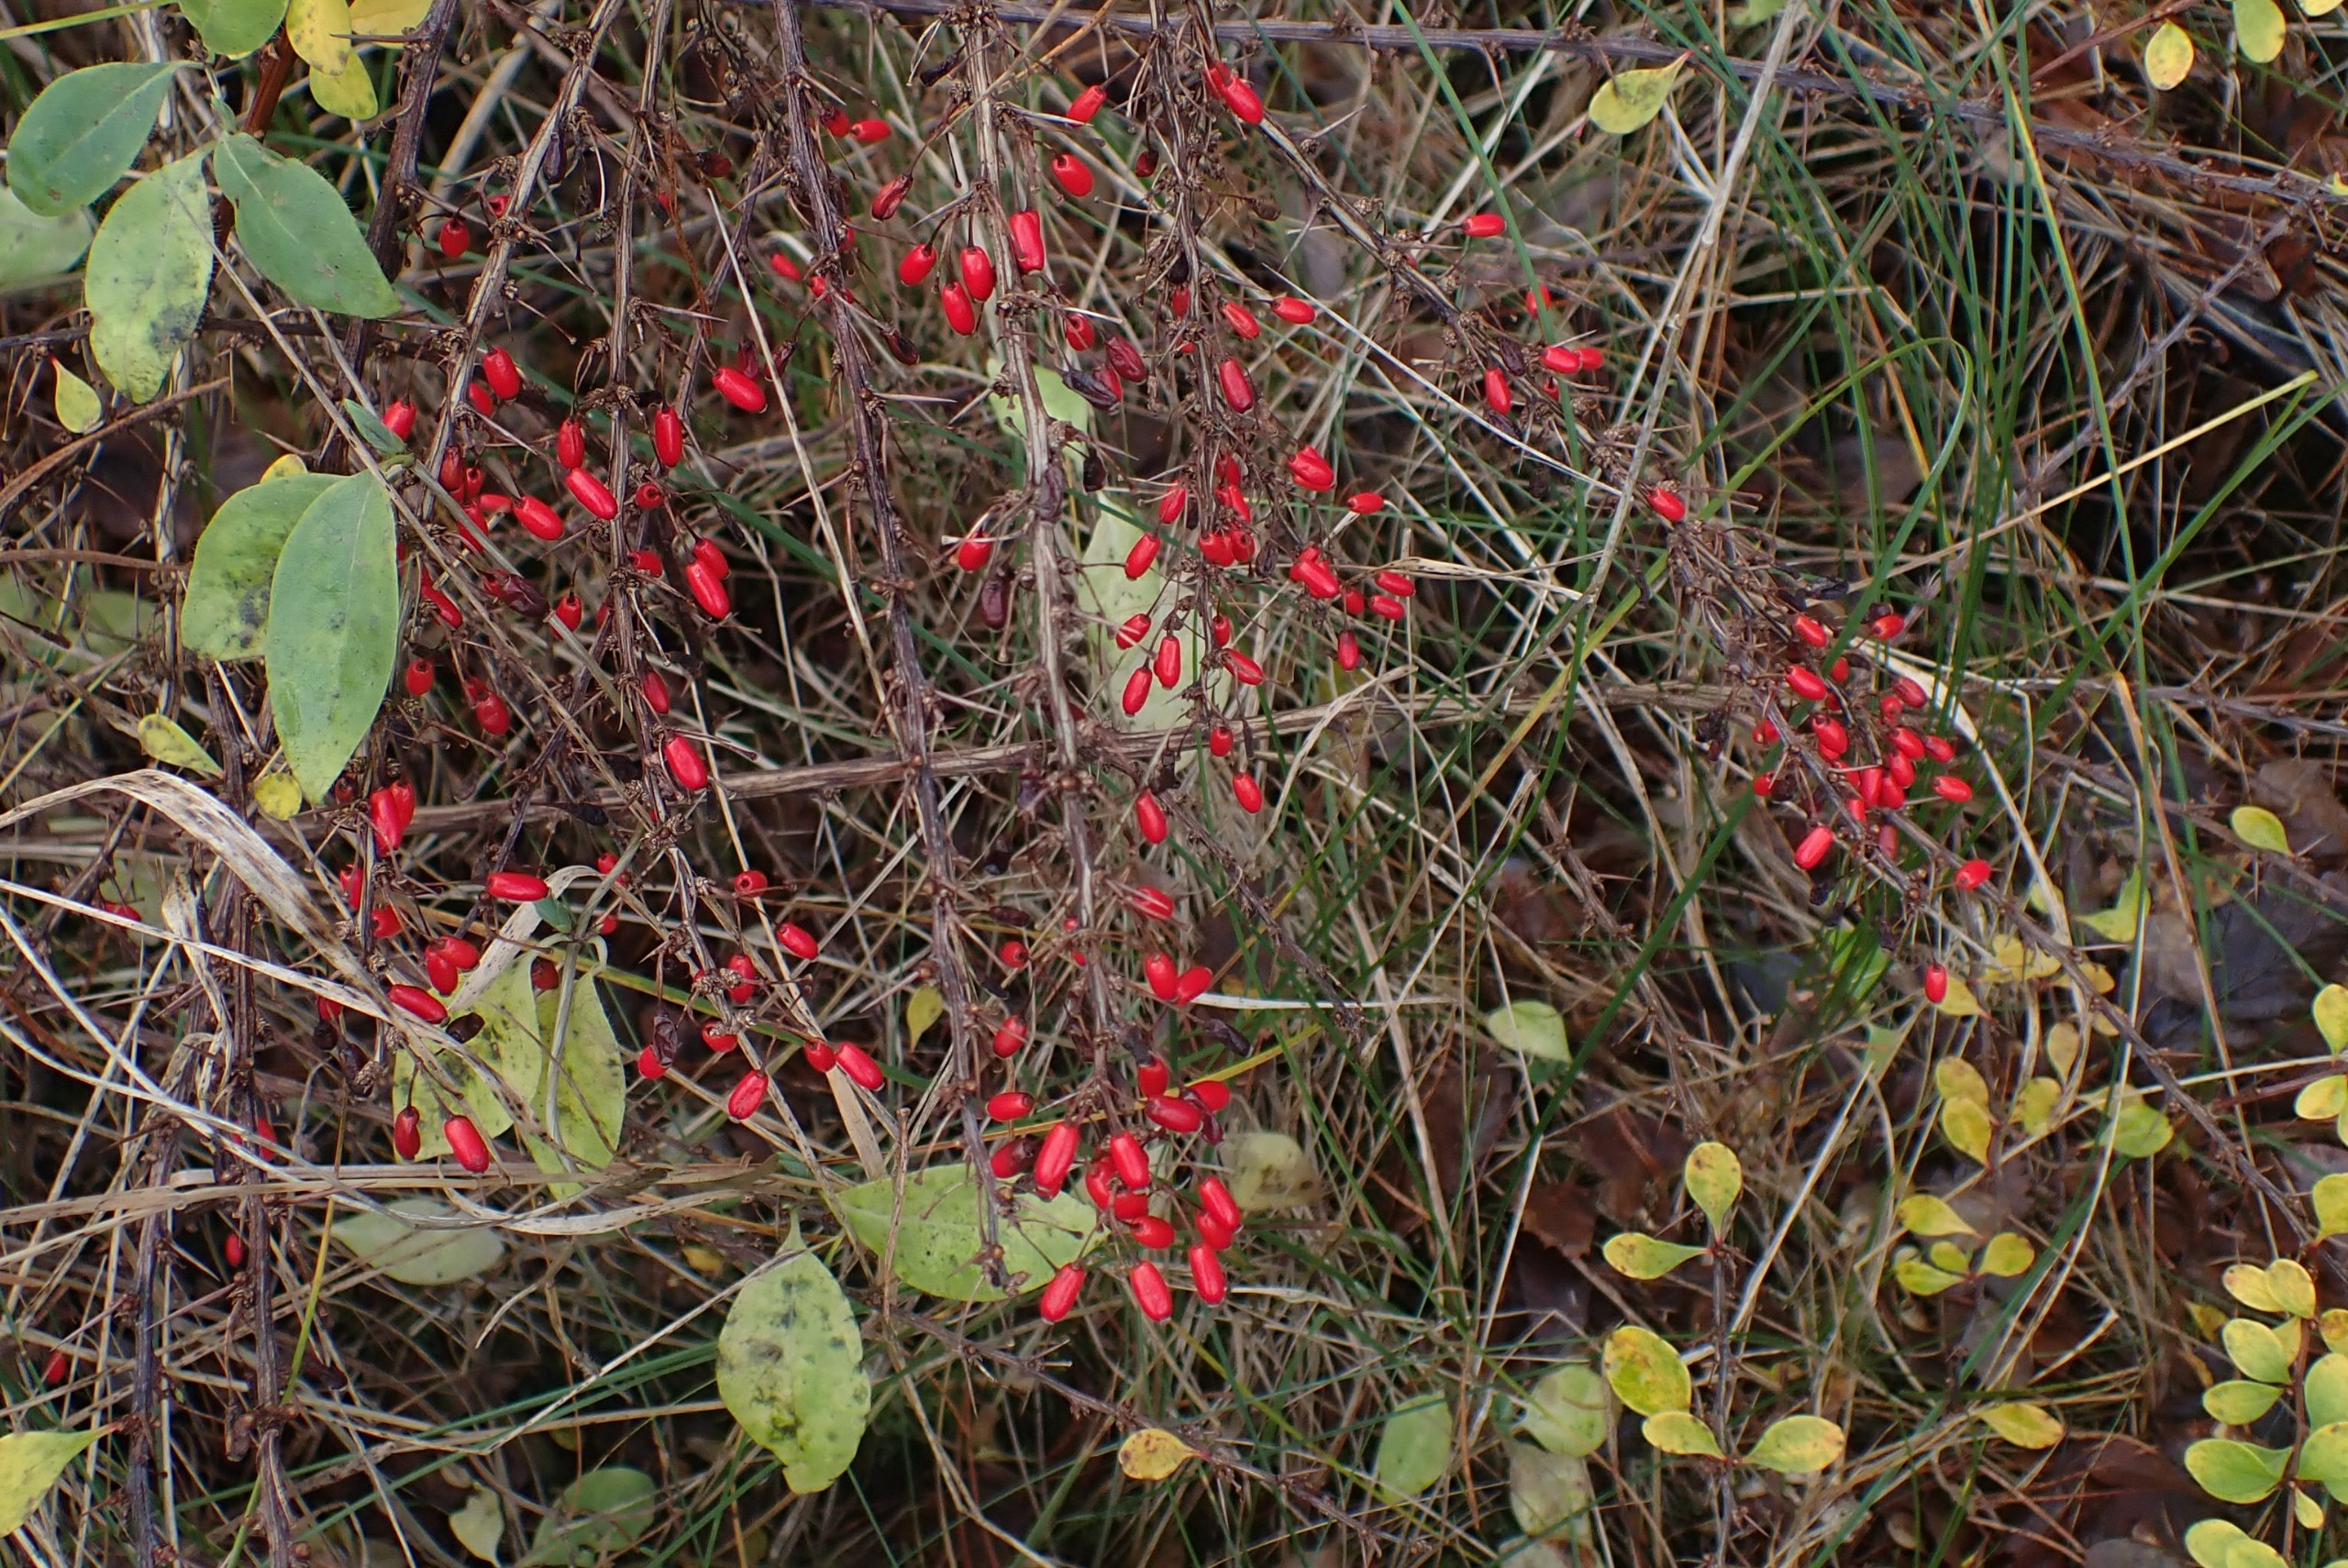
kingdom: Plantae
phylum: Tracheophyta
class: Magnoliopsida
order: Ranunculales
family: Berberidaceae
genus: Berberis
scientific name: Berberis thunbergii
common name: Hæk-berberis
